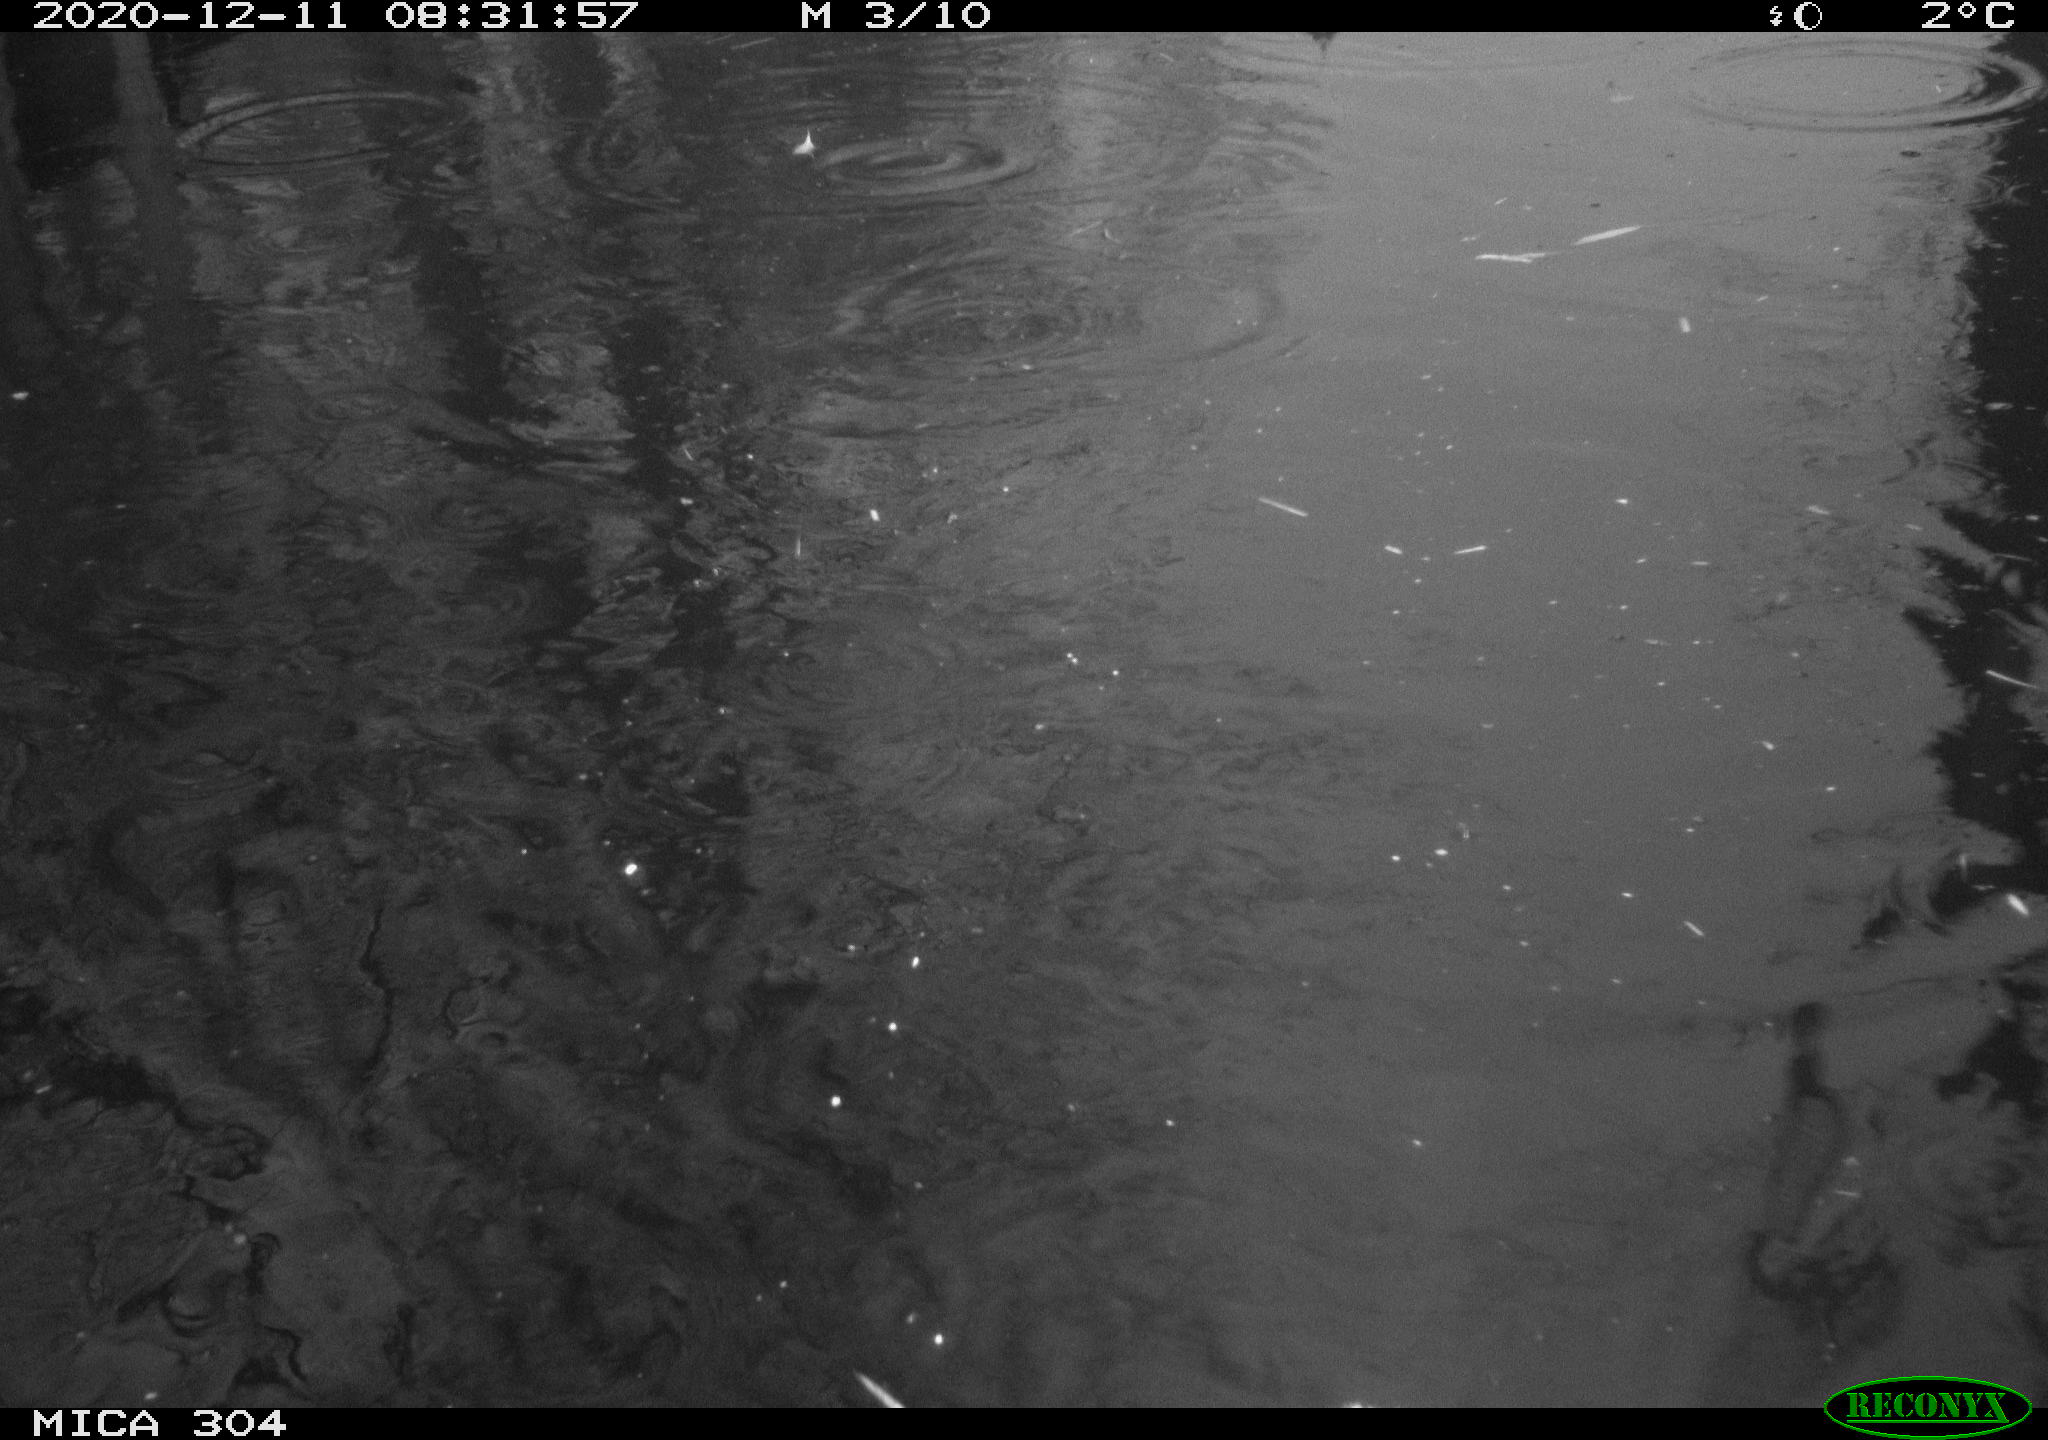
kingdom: Animalia
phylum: Chordata
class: Aves
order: Anseriformes
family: Anatidae
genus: Mareca
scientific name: Mareca strepera
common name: Gadwall
